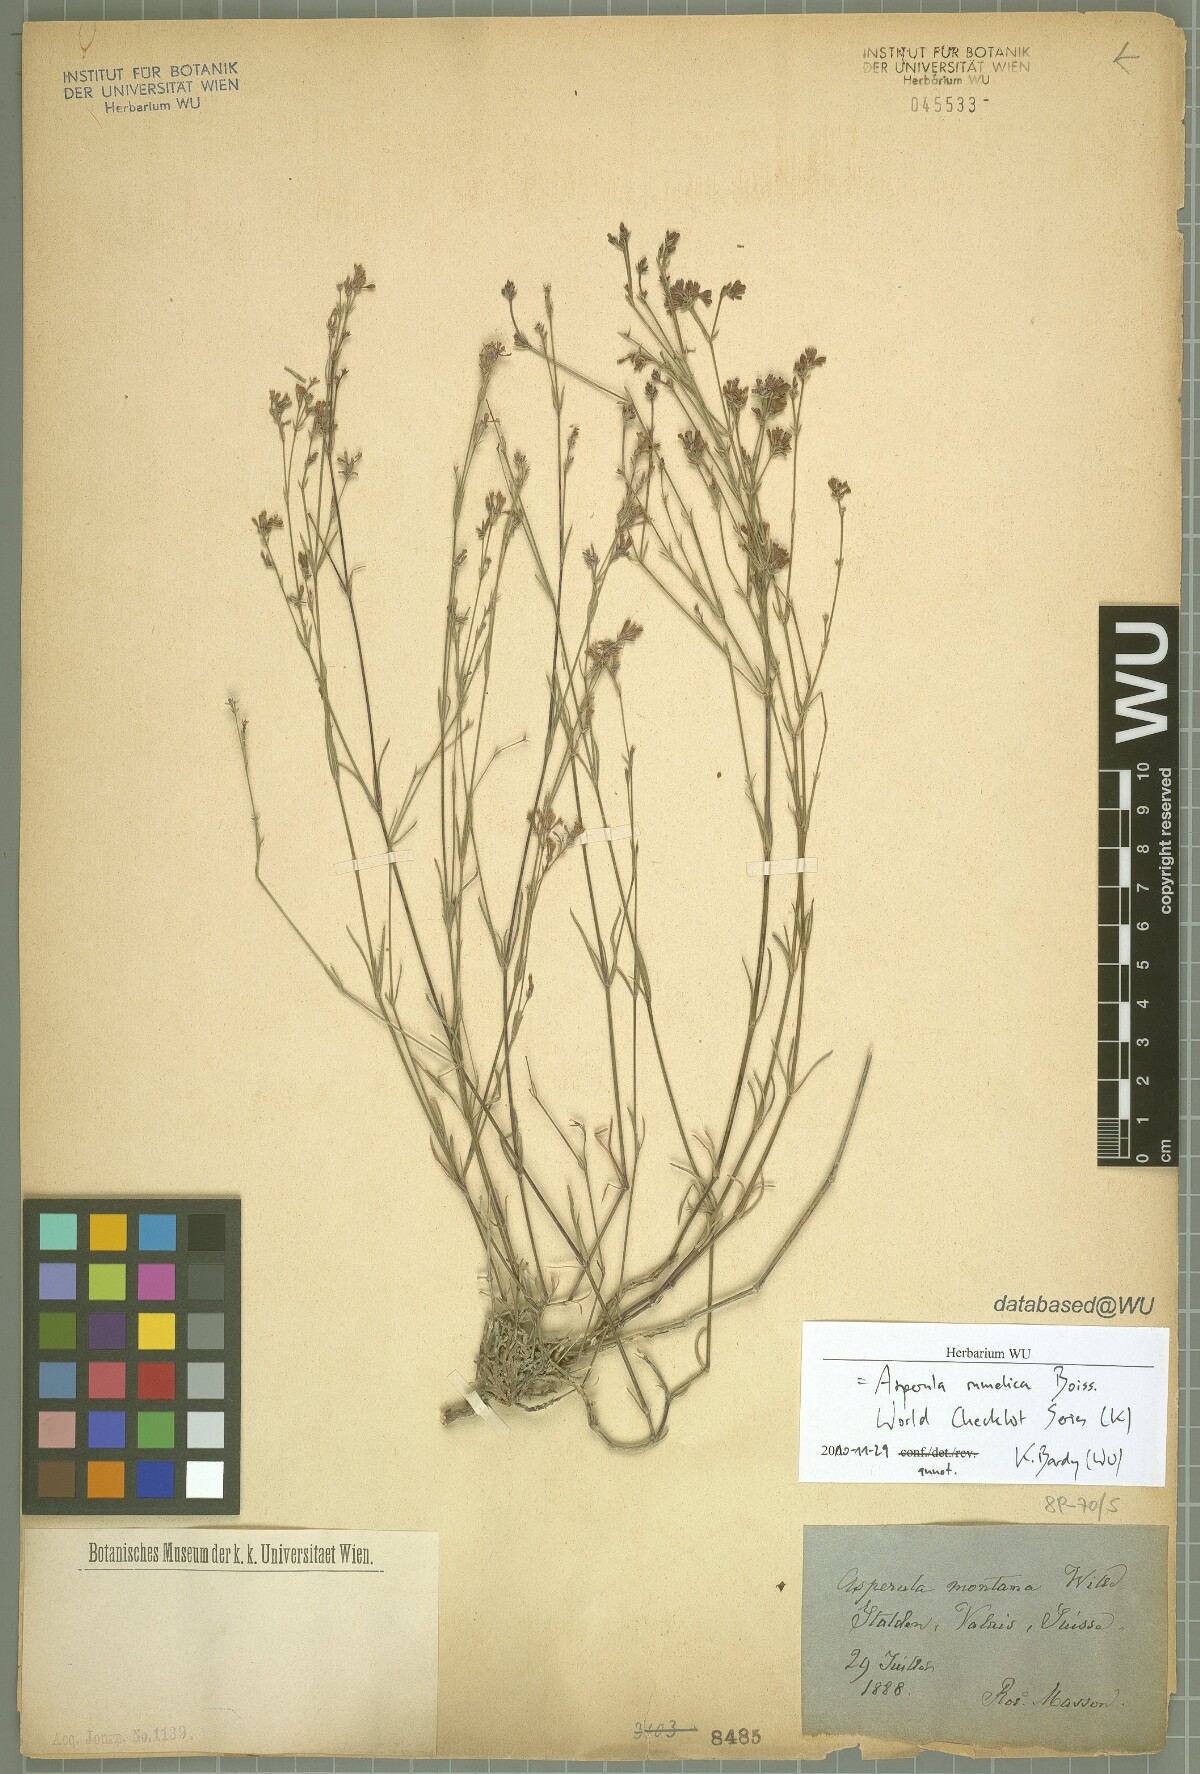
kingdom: Plantae
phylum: Tracheophyta
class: Magnoliopsida
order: Gentianales
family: Rubiaceae
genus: Cynanchica
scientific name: Cynanchica rumelica
